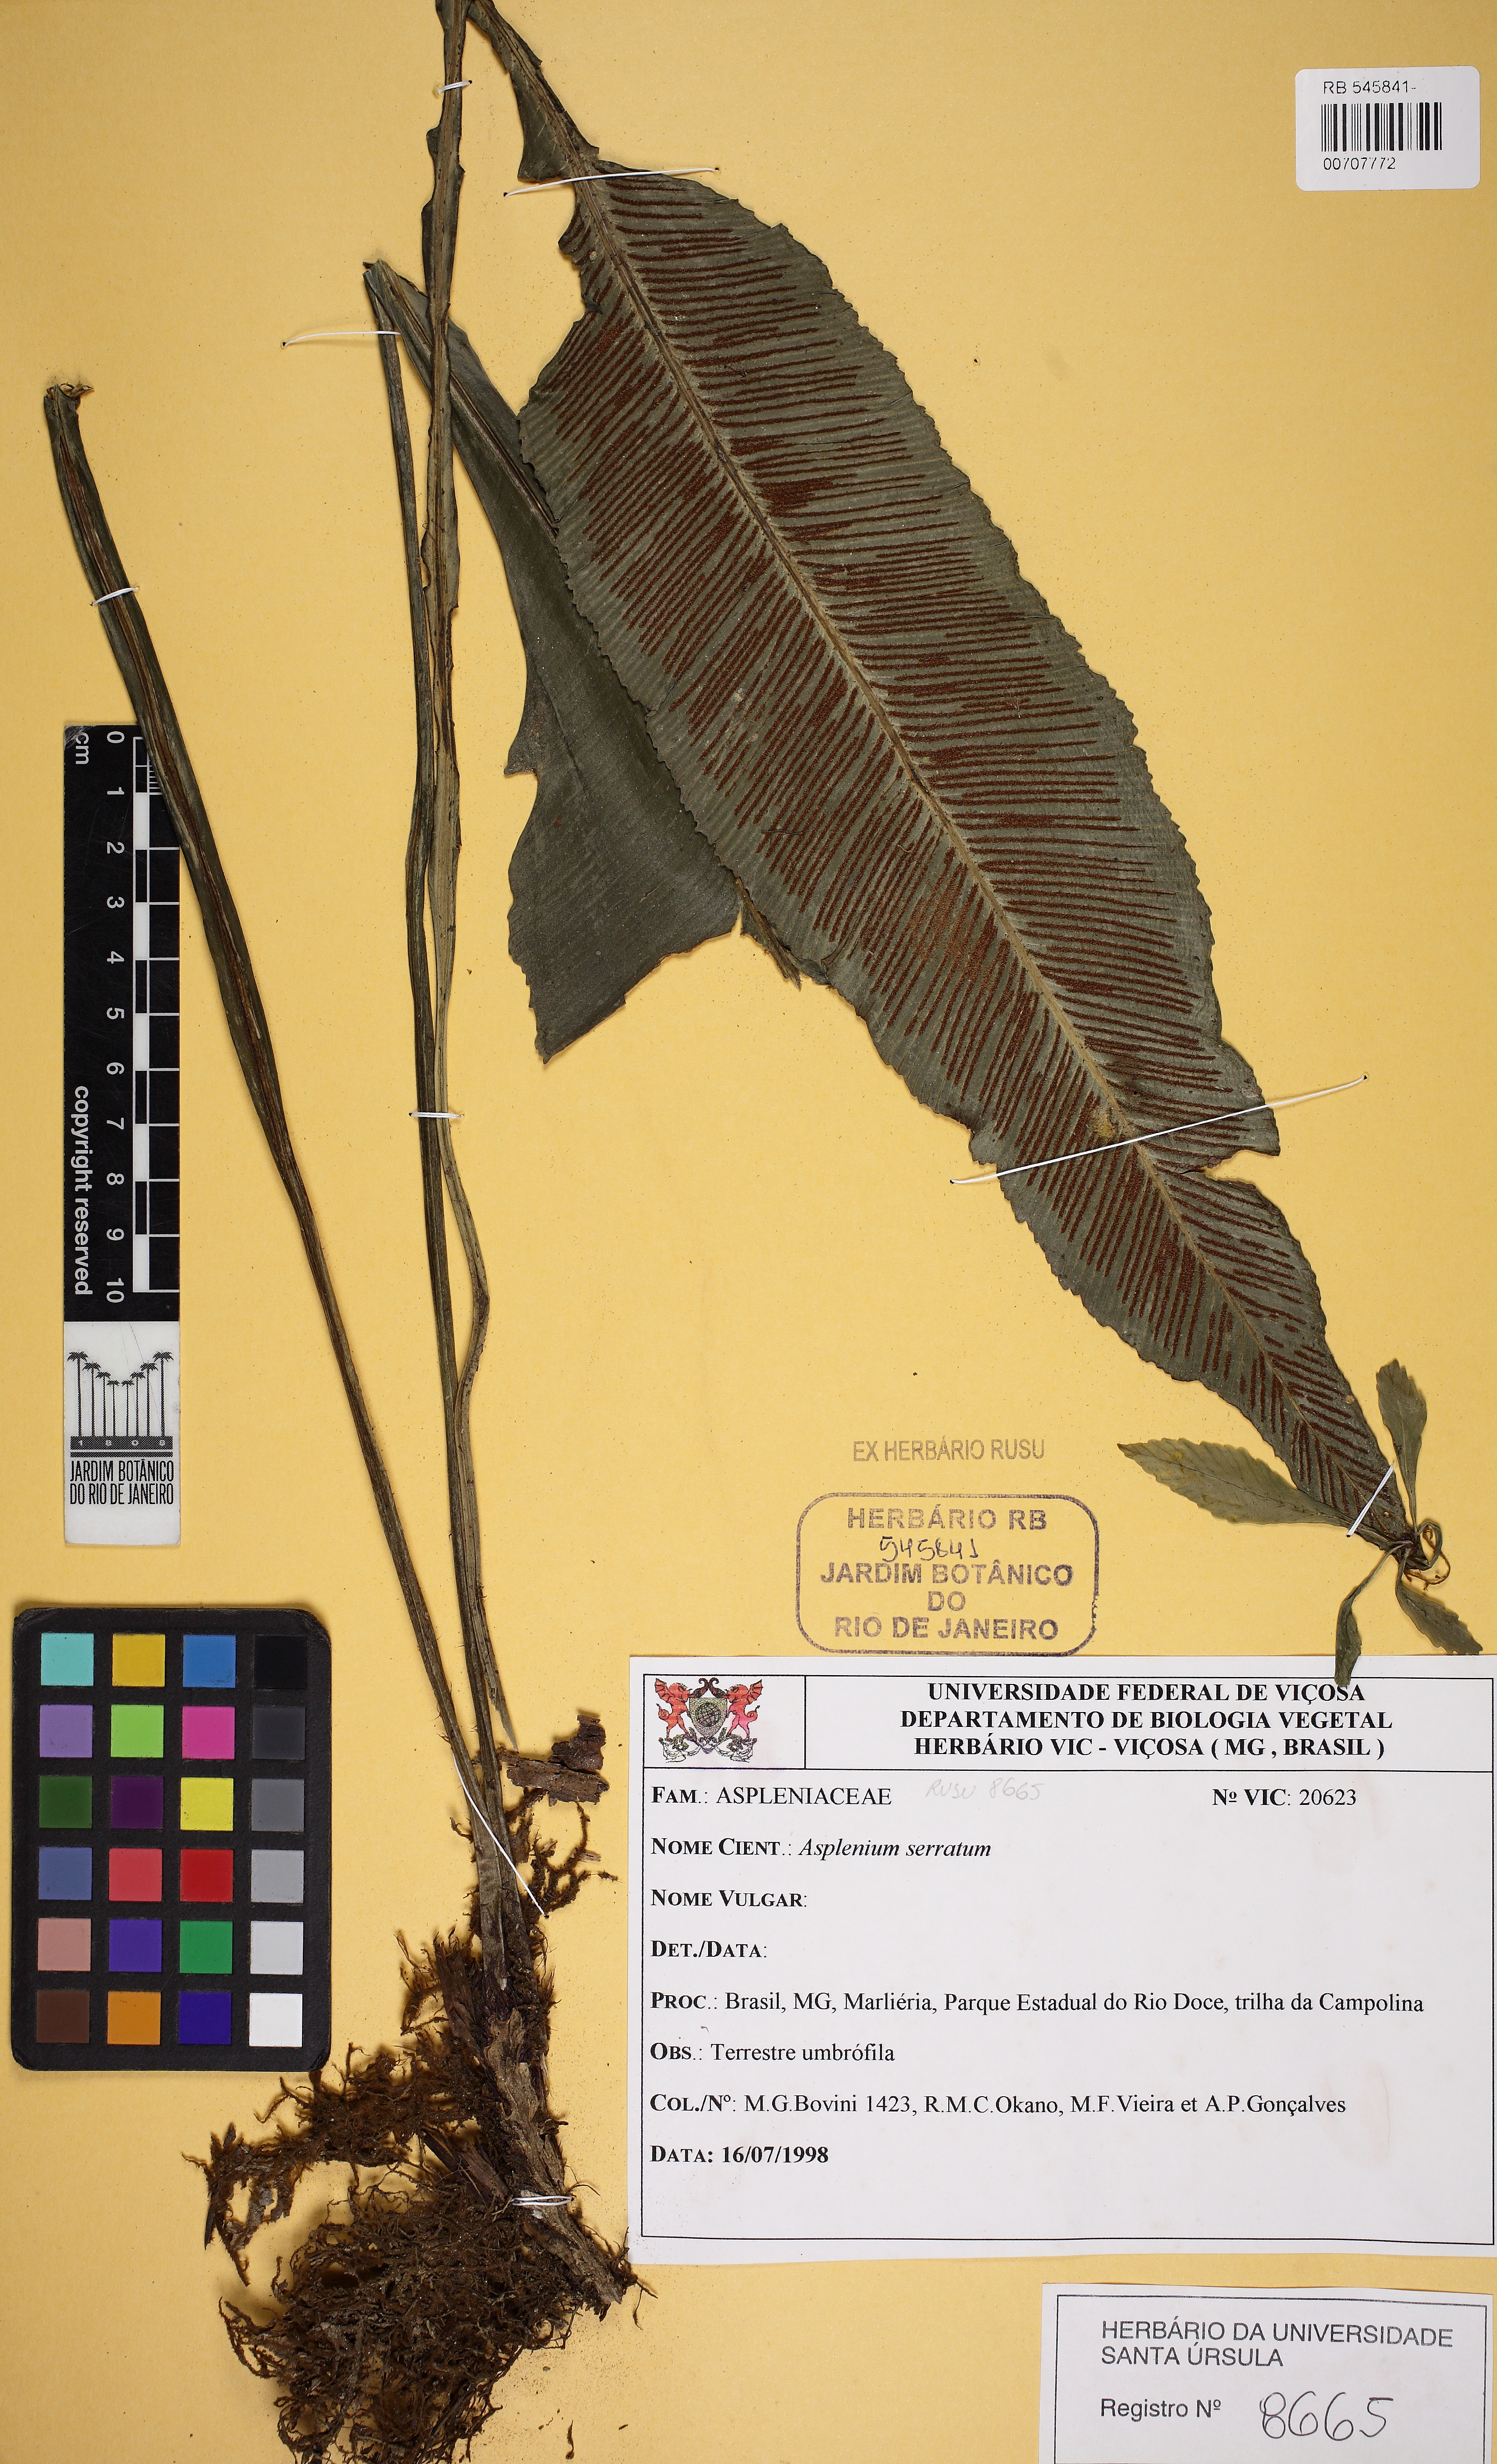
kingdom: Plantae
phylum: Tracheophyta
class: Polypodiopsida
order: Polypodiales
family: Aspleniaceae
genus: Asplenium
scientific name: Asplenium stuebelianum
